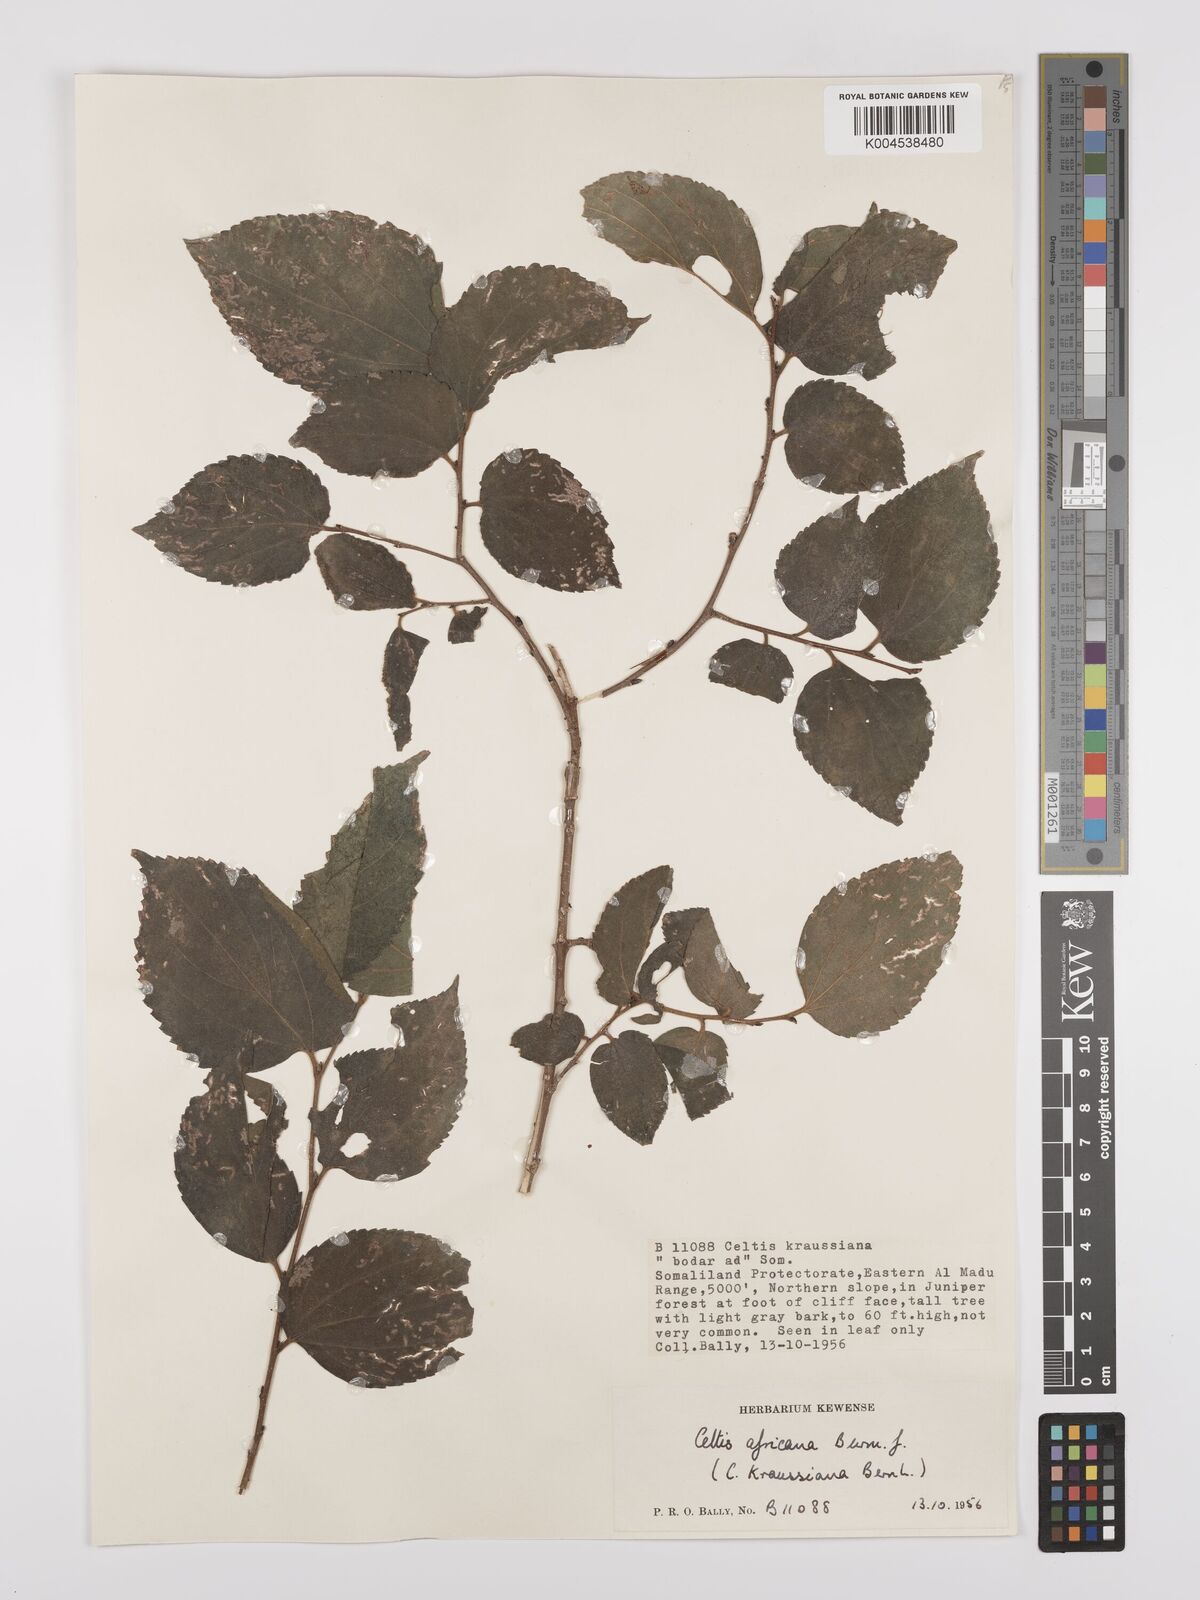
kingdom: Plantae
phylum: Tracheophyta
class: Magnoliopsida
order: Rosales
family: Cannabaceae
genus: Celtis
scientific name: Celtis africana
